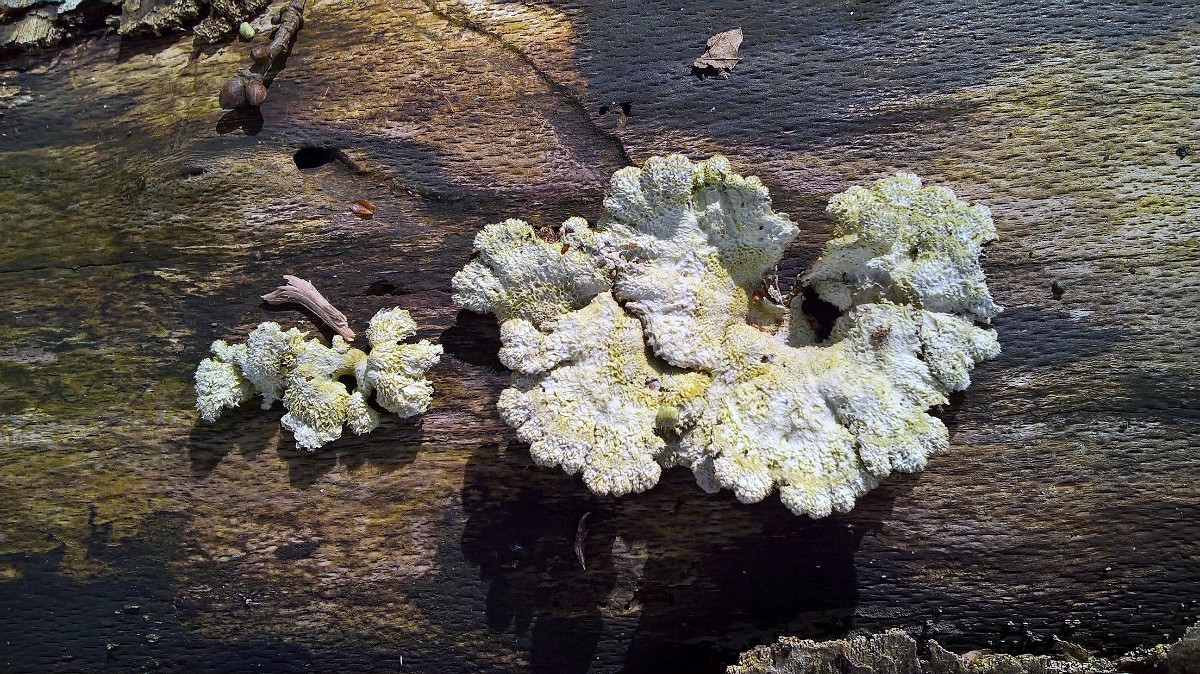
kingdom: Fungi
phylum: Basidiomycota
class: Agaricomycetes
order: Agaricales
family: Schizophyllaceae
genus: Schizophyllum
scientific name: Schizophyllum commune
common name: kløvblad
